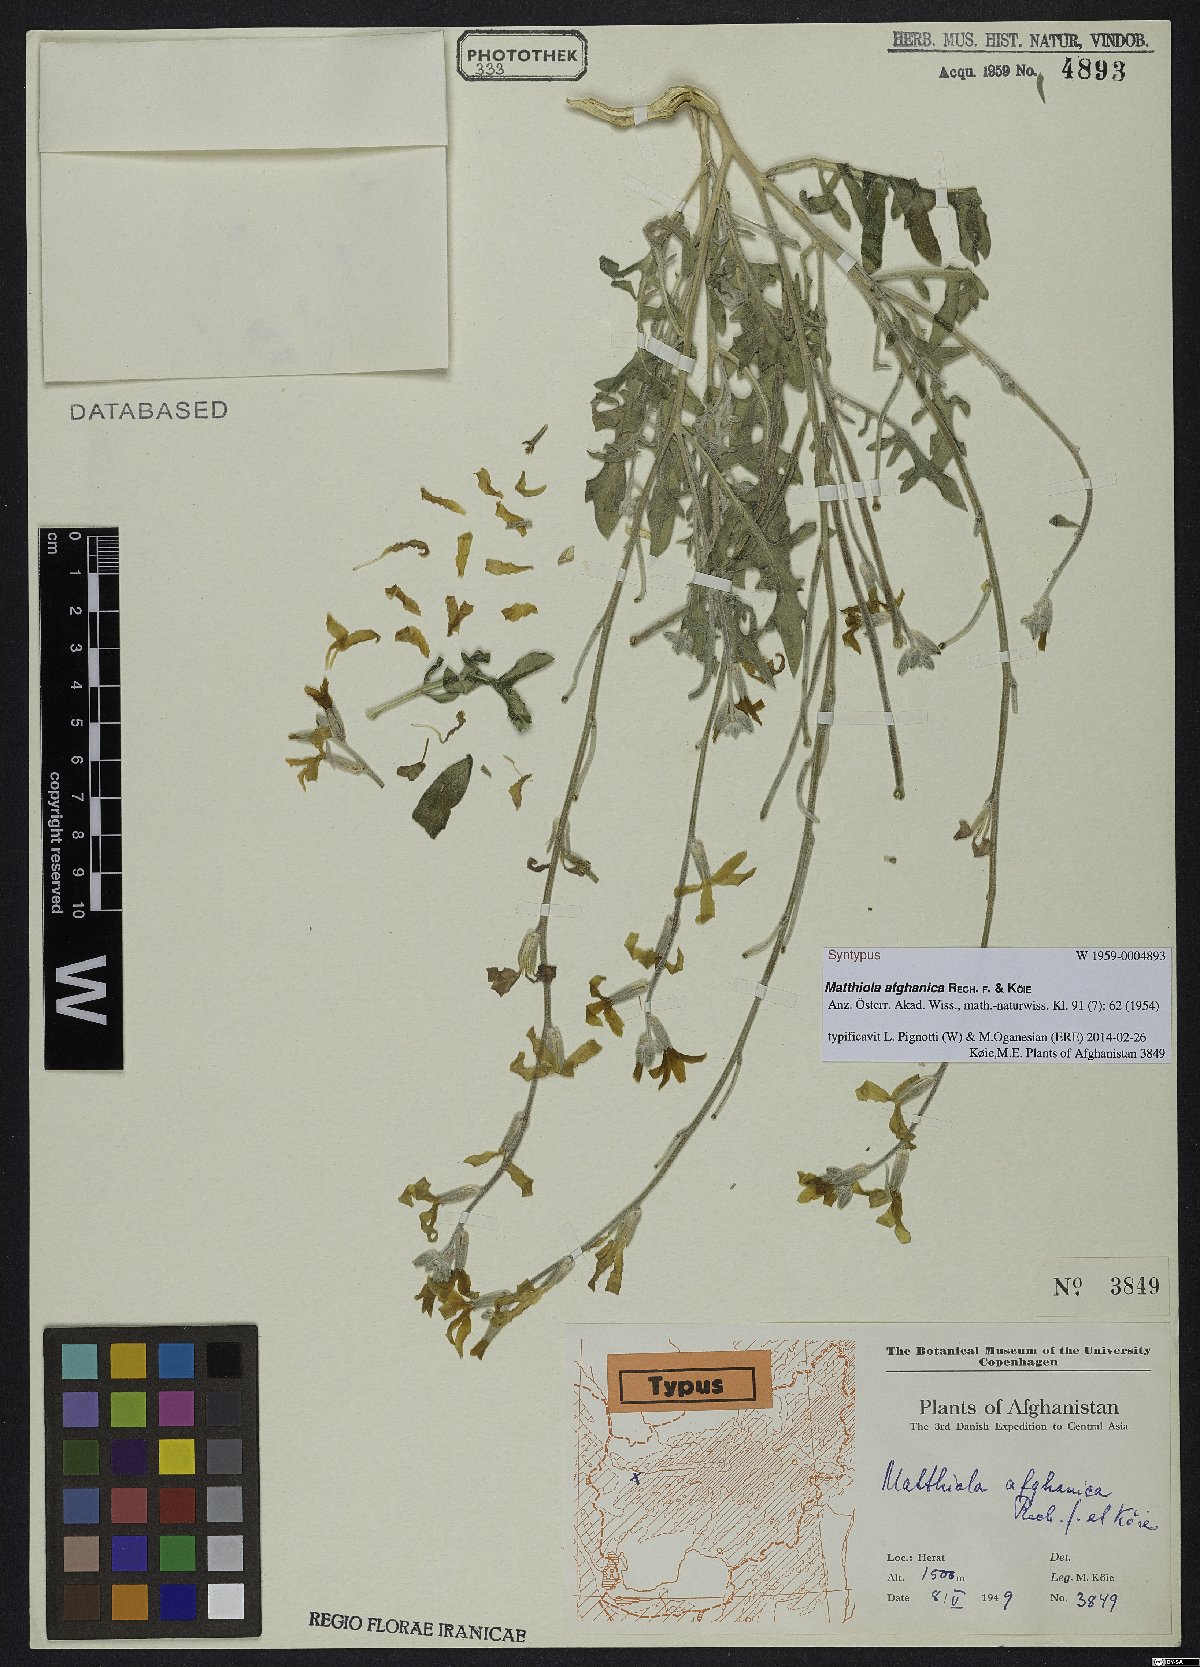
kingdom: Plantae
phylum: Tracheophyta
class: Magnoliopsida
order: Brassicales
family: Brassicaceae
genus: Matthiola
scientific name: Matthiola afghanica
